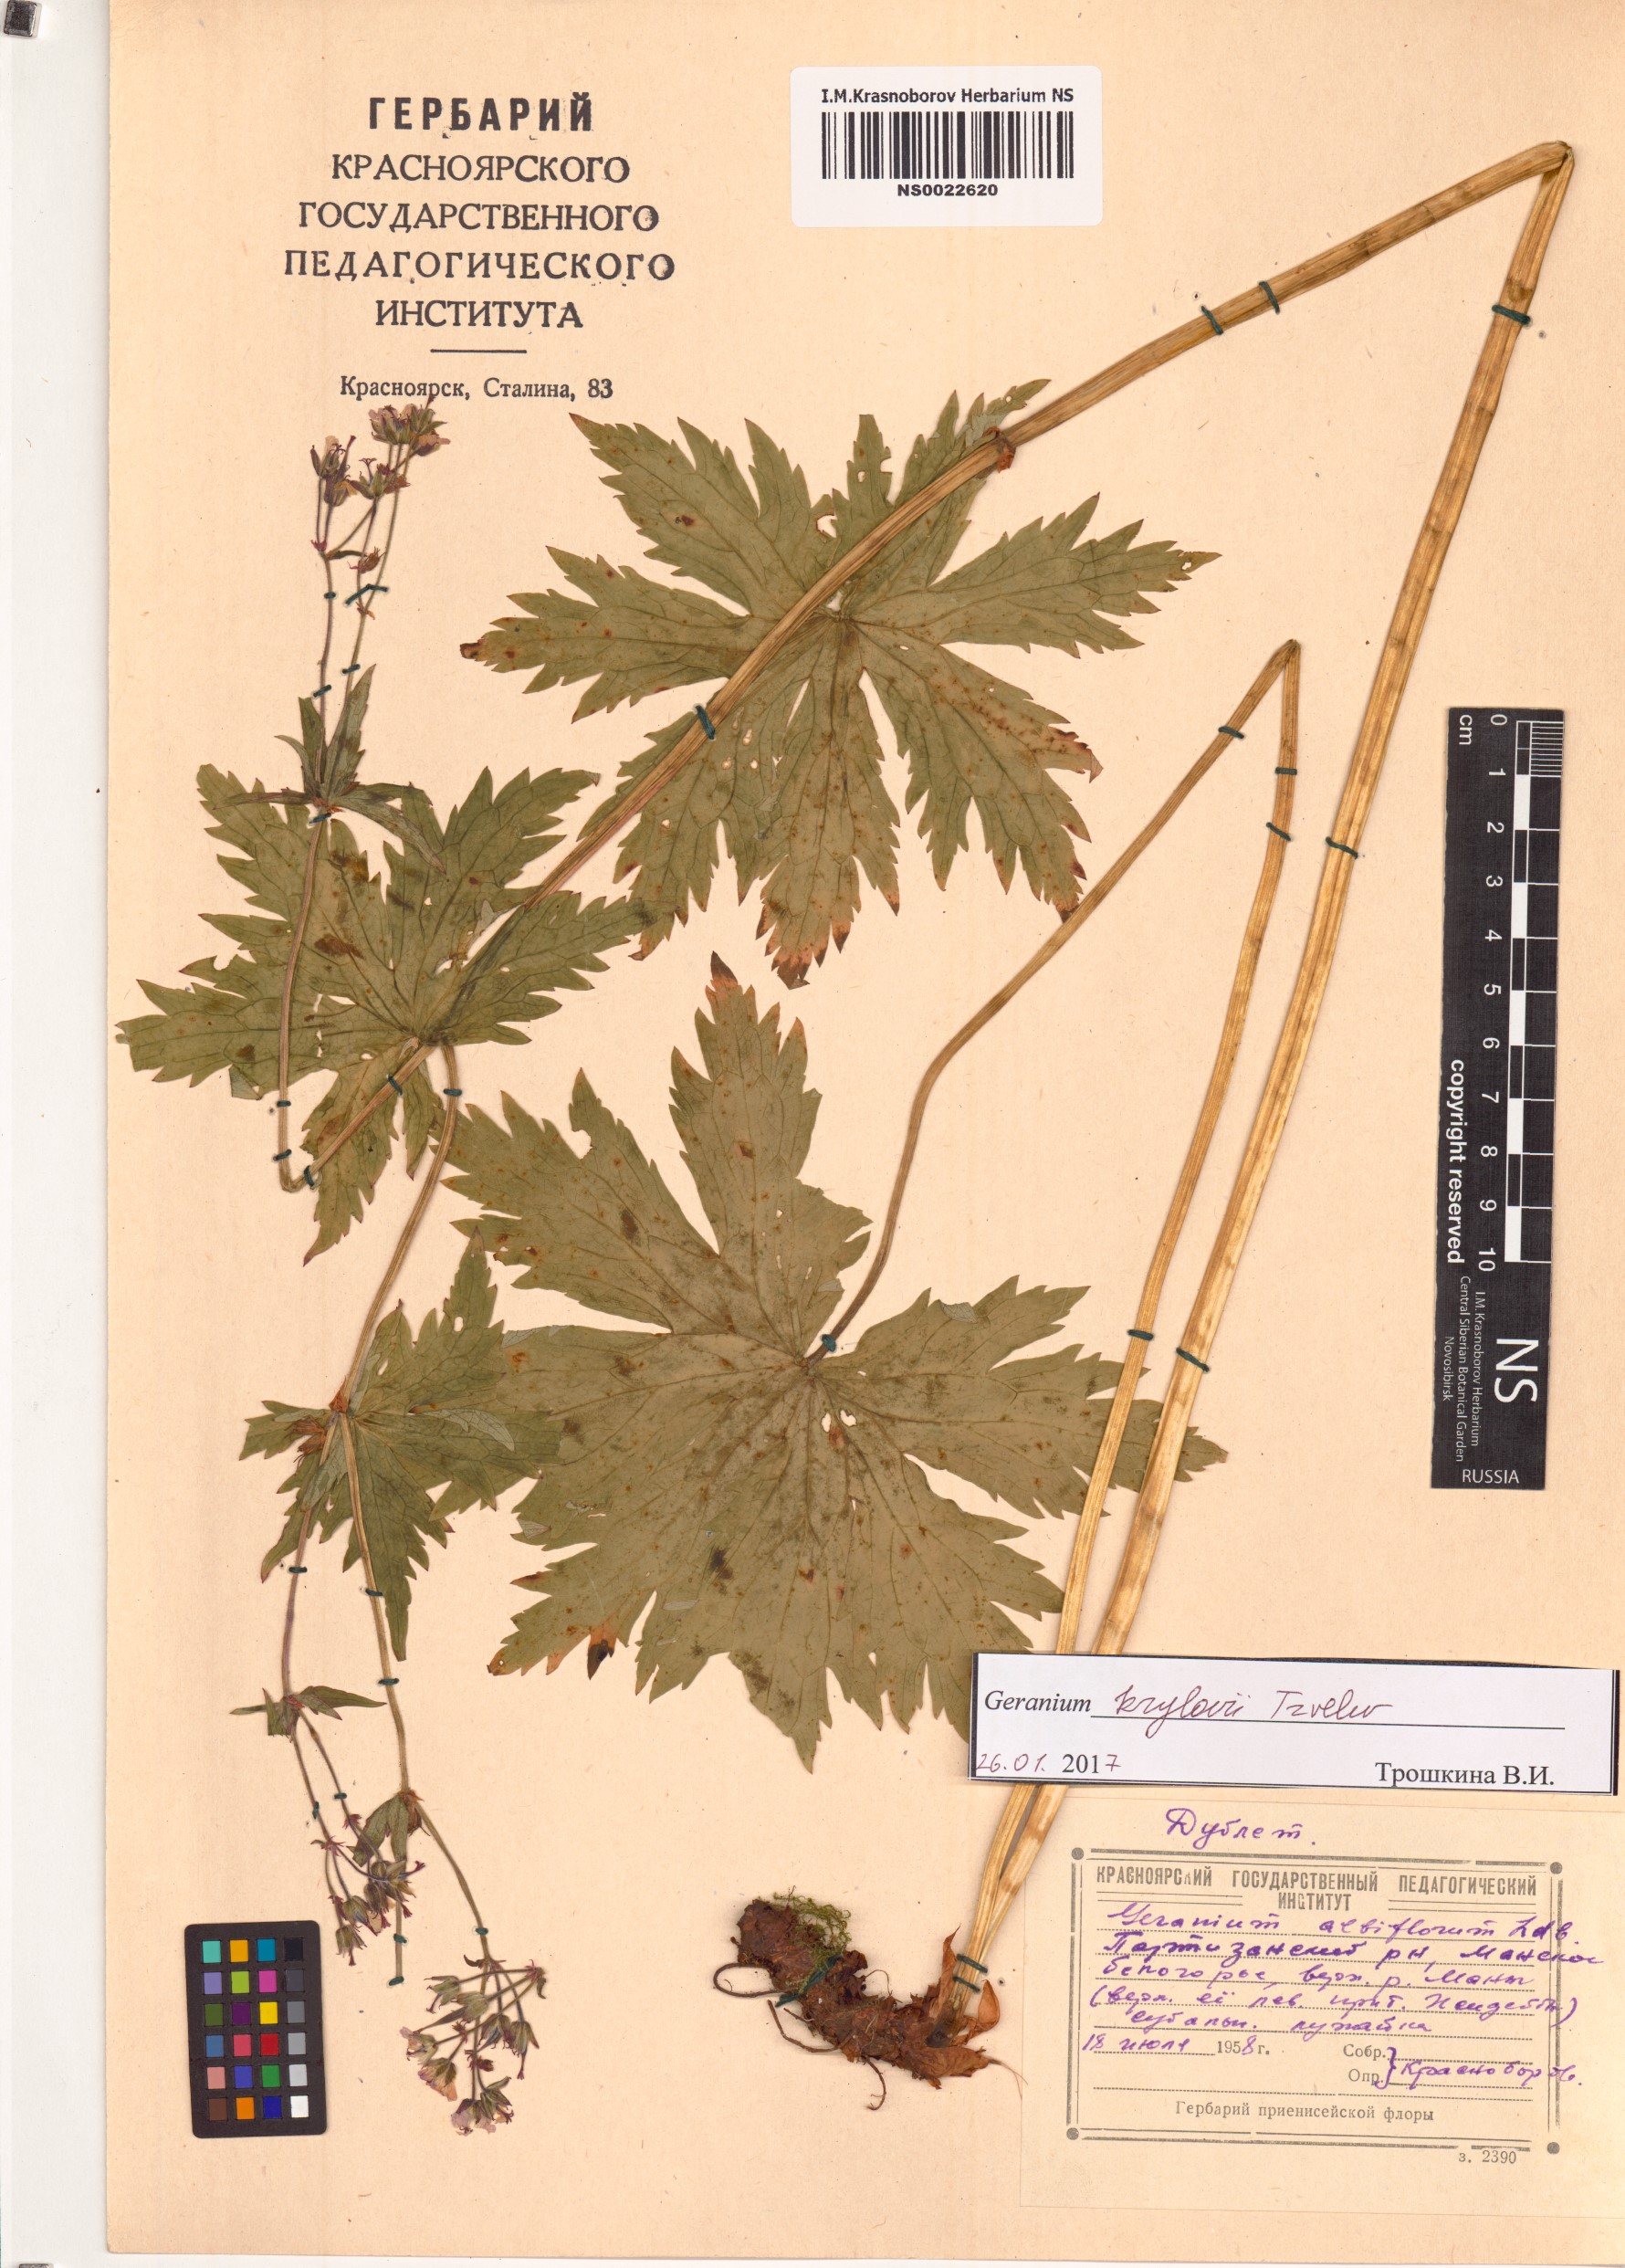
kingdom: Plantae
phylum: Tracheophyta
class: Magnoliopsida
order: Geraniales
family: Geraniaceae
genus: Geranium
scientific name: Geranium sylvaticum
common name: Wood crane's-bill
